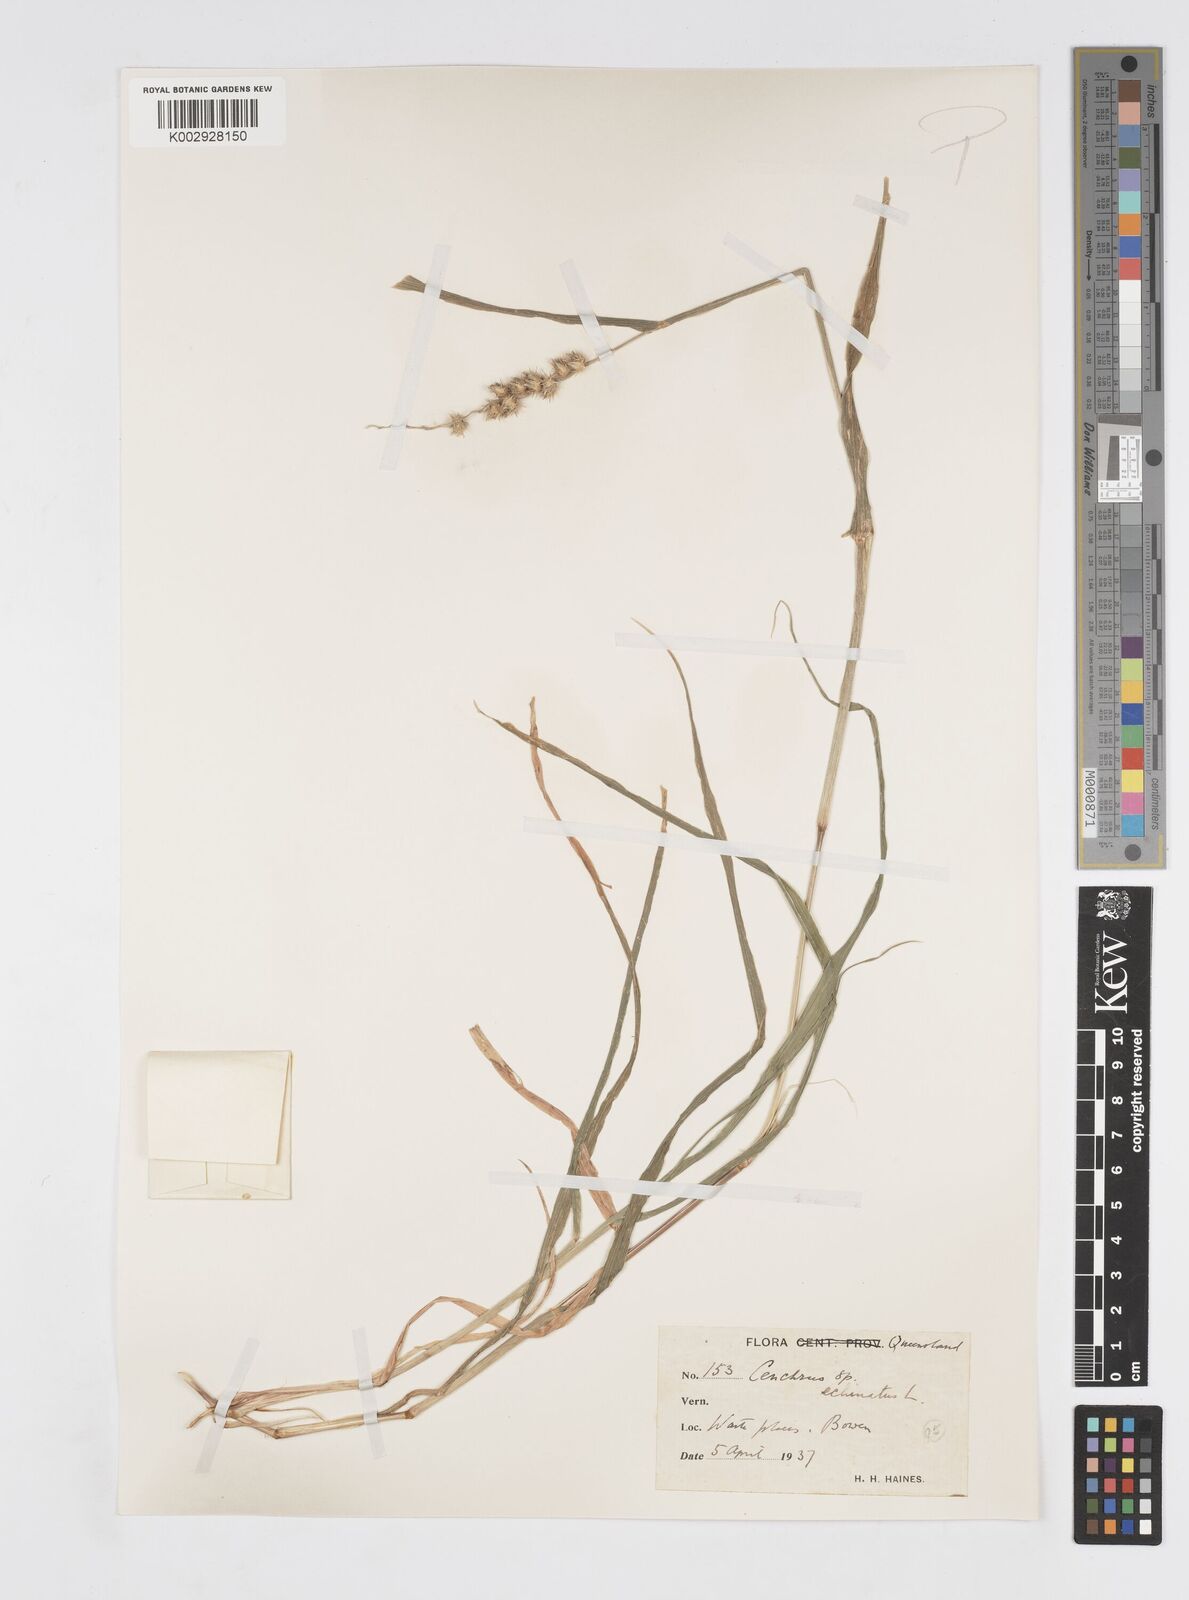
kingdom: Plantae
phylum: Tracheophyta
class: Liliopsida
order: Poales
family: Poaceae
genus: Cenchrus
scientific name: Cenchrus echinatus
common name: Southern sandbur
